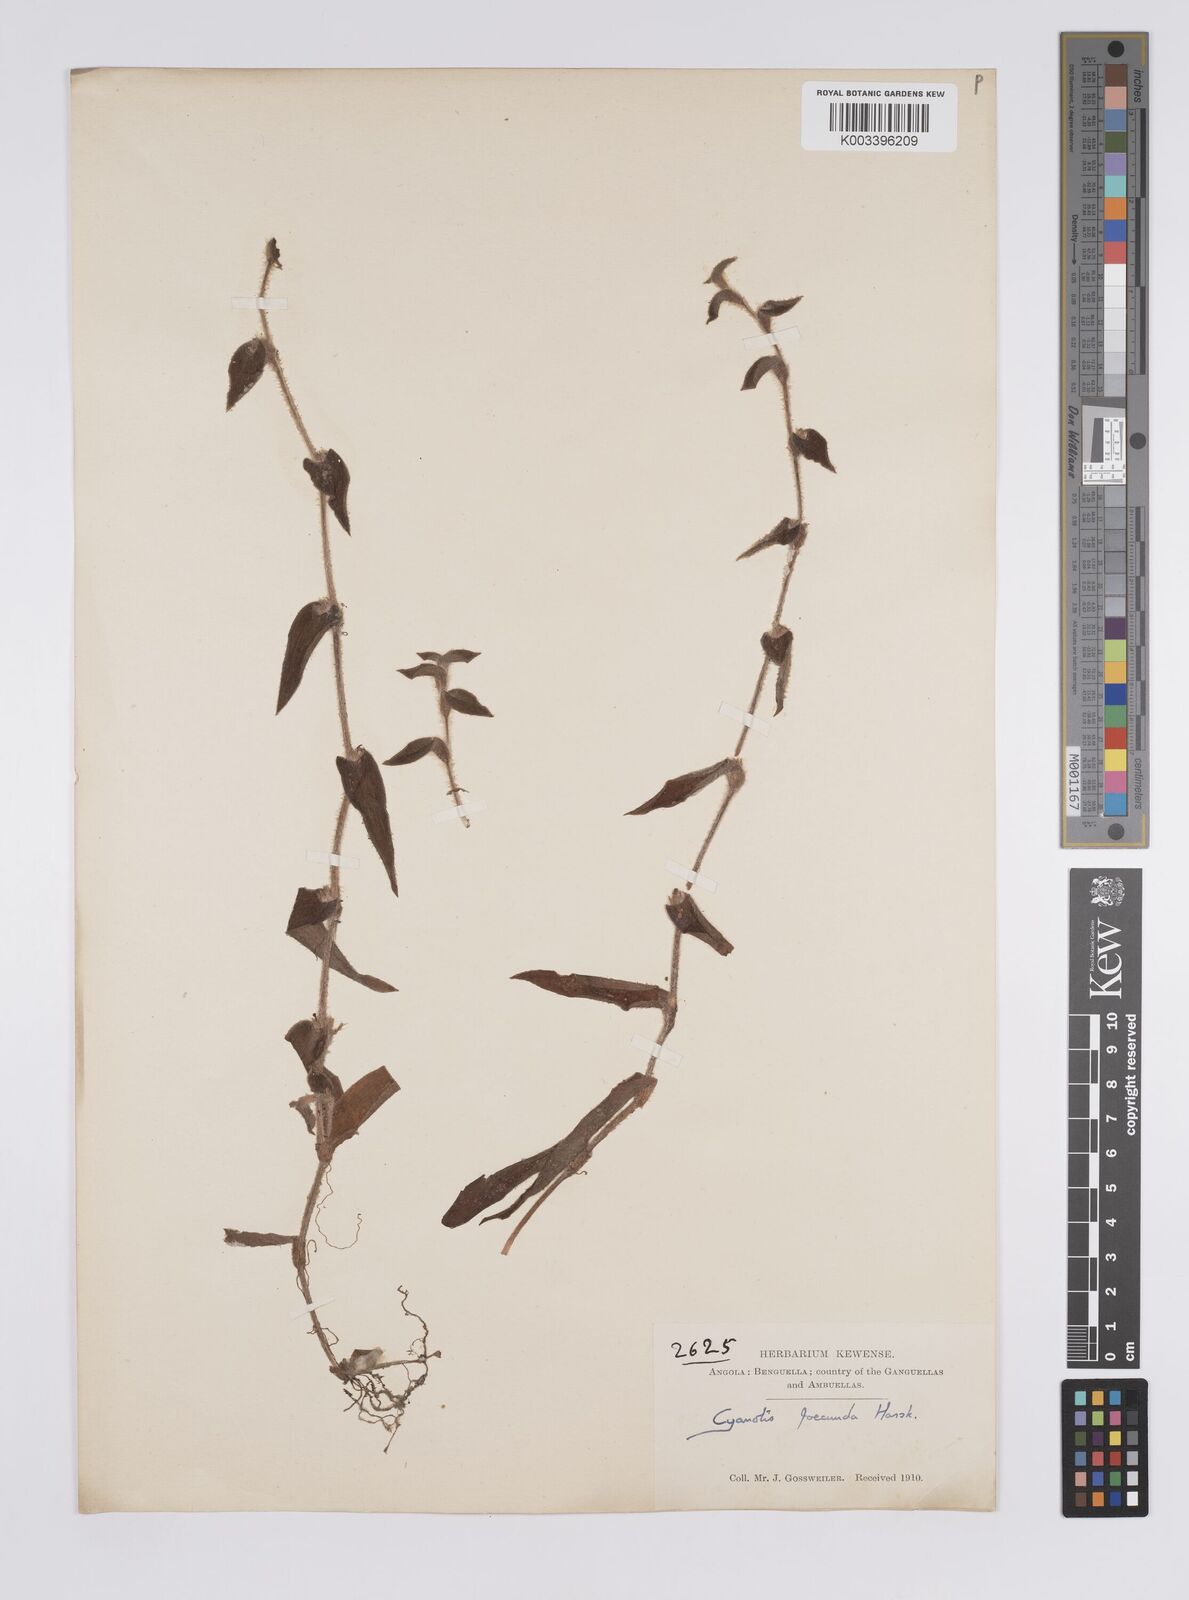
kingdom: Plantae
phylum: Tracheophyta
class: Liliopsida
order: Commelinales
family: Commelinaceae
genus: Cyanotis
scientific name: Cyanotis foecunda
